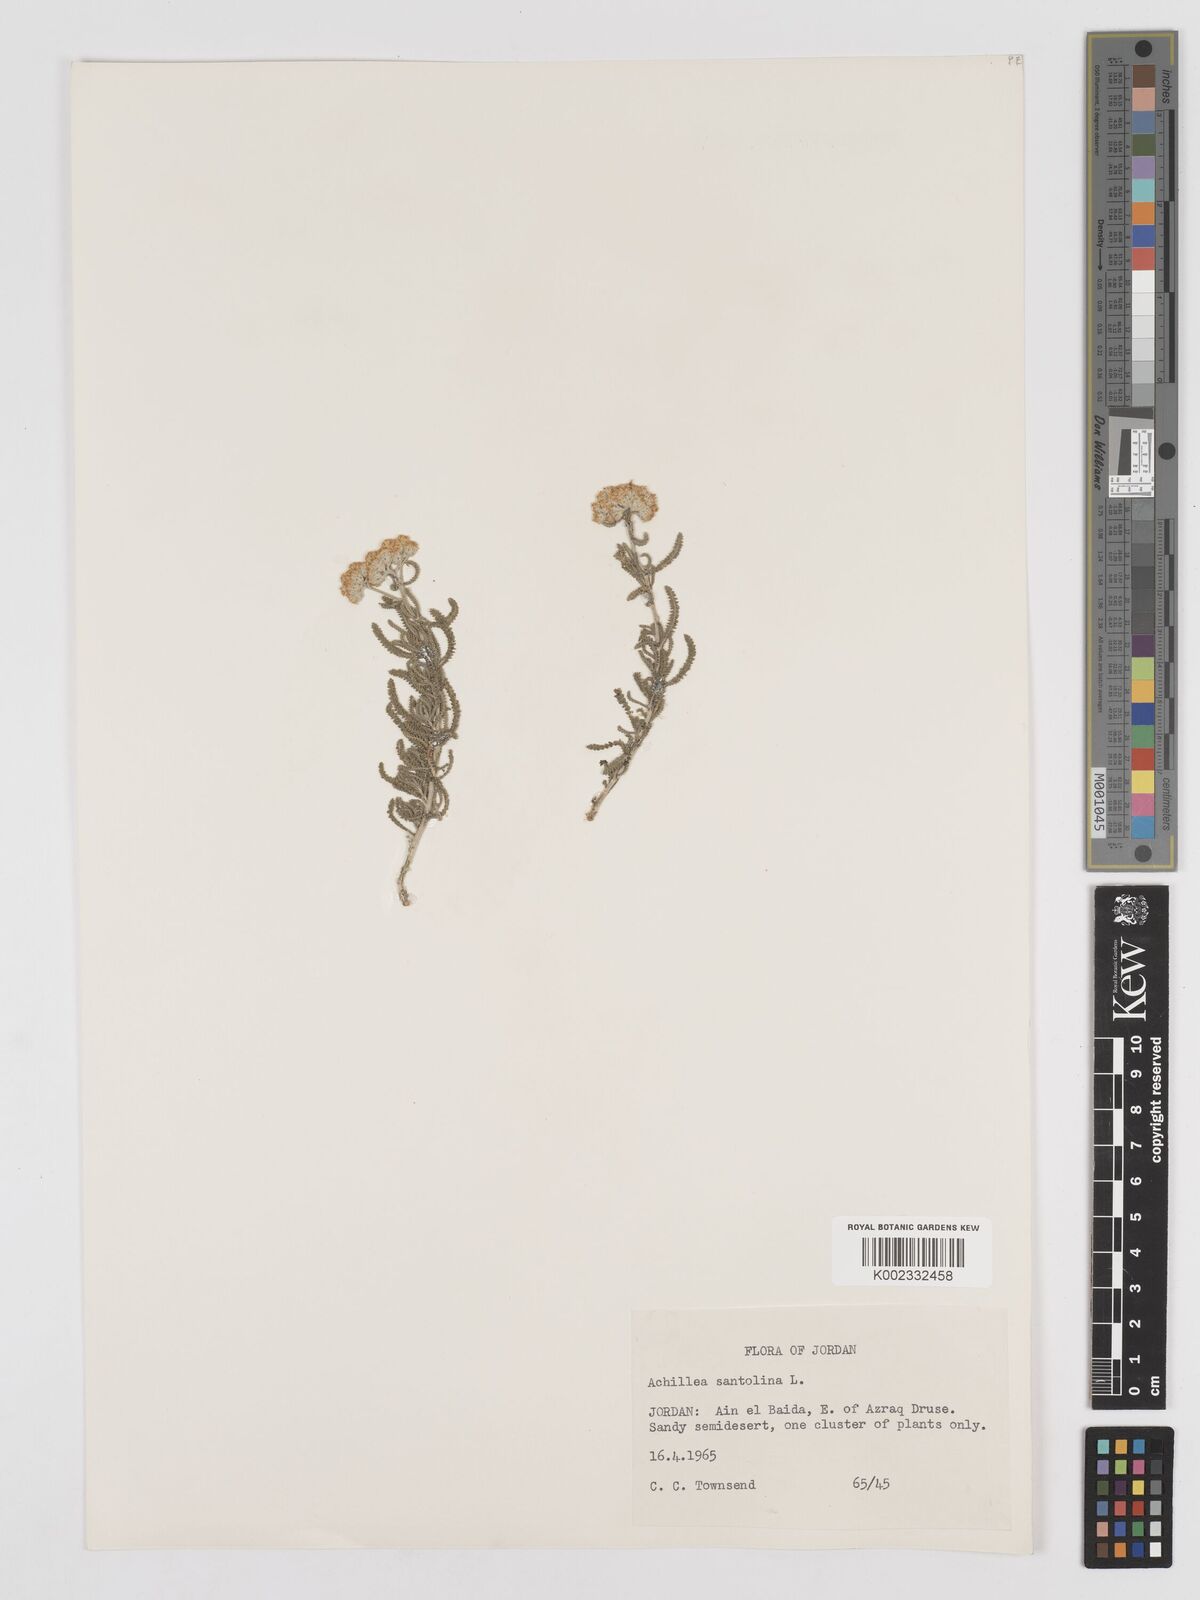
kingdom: Plantae
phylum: Tracheophyta
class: Magnoliopsida
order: Asterales
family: Asteraceae
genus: Achillea
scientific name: Achillea tenuifolia
